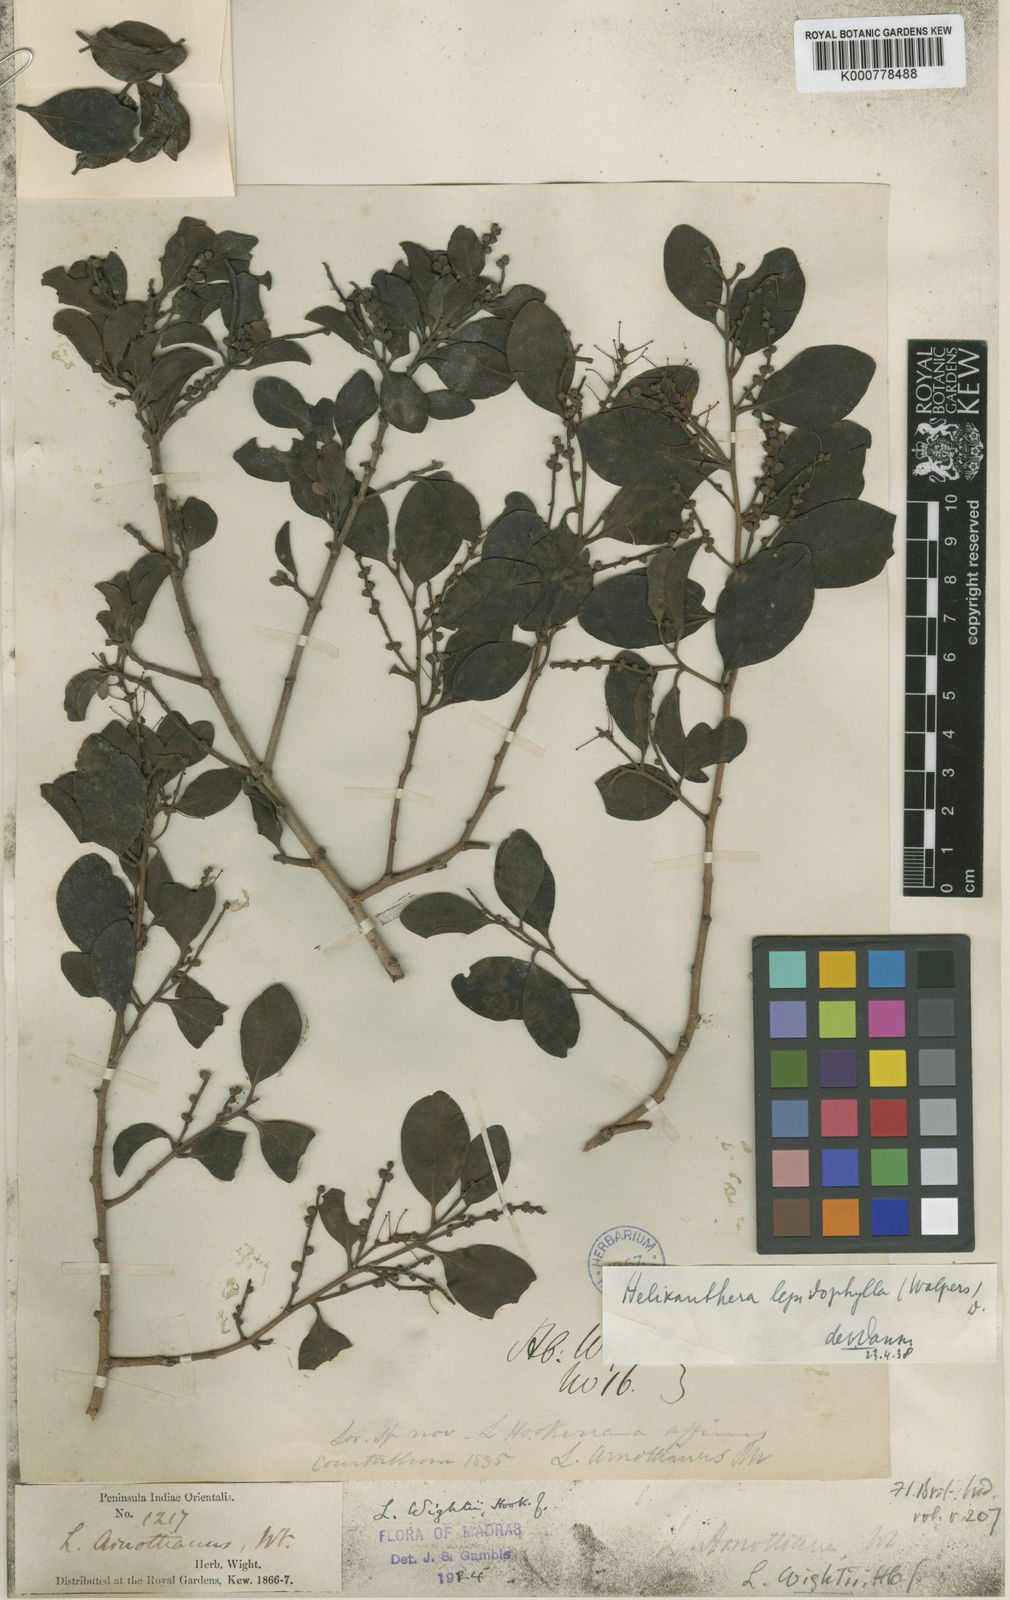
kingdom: Plantae
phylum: Tracheophyta
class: Magnoliopsida
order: Santalales
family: Loranthaceae
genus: Helixanthera
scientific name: Helixanthera hookeriana
